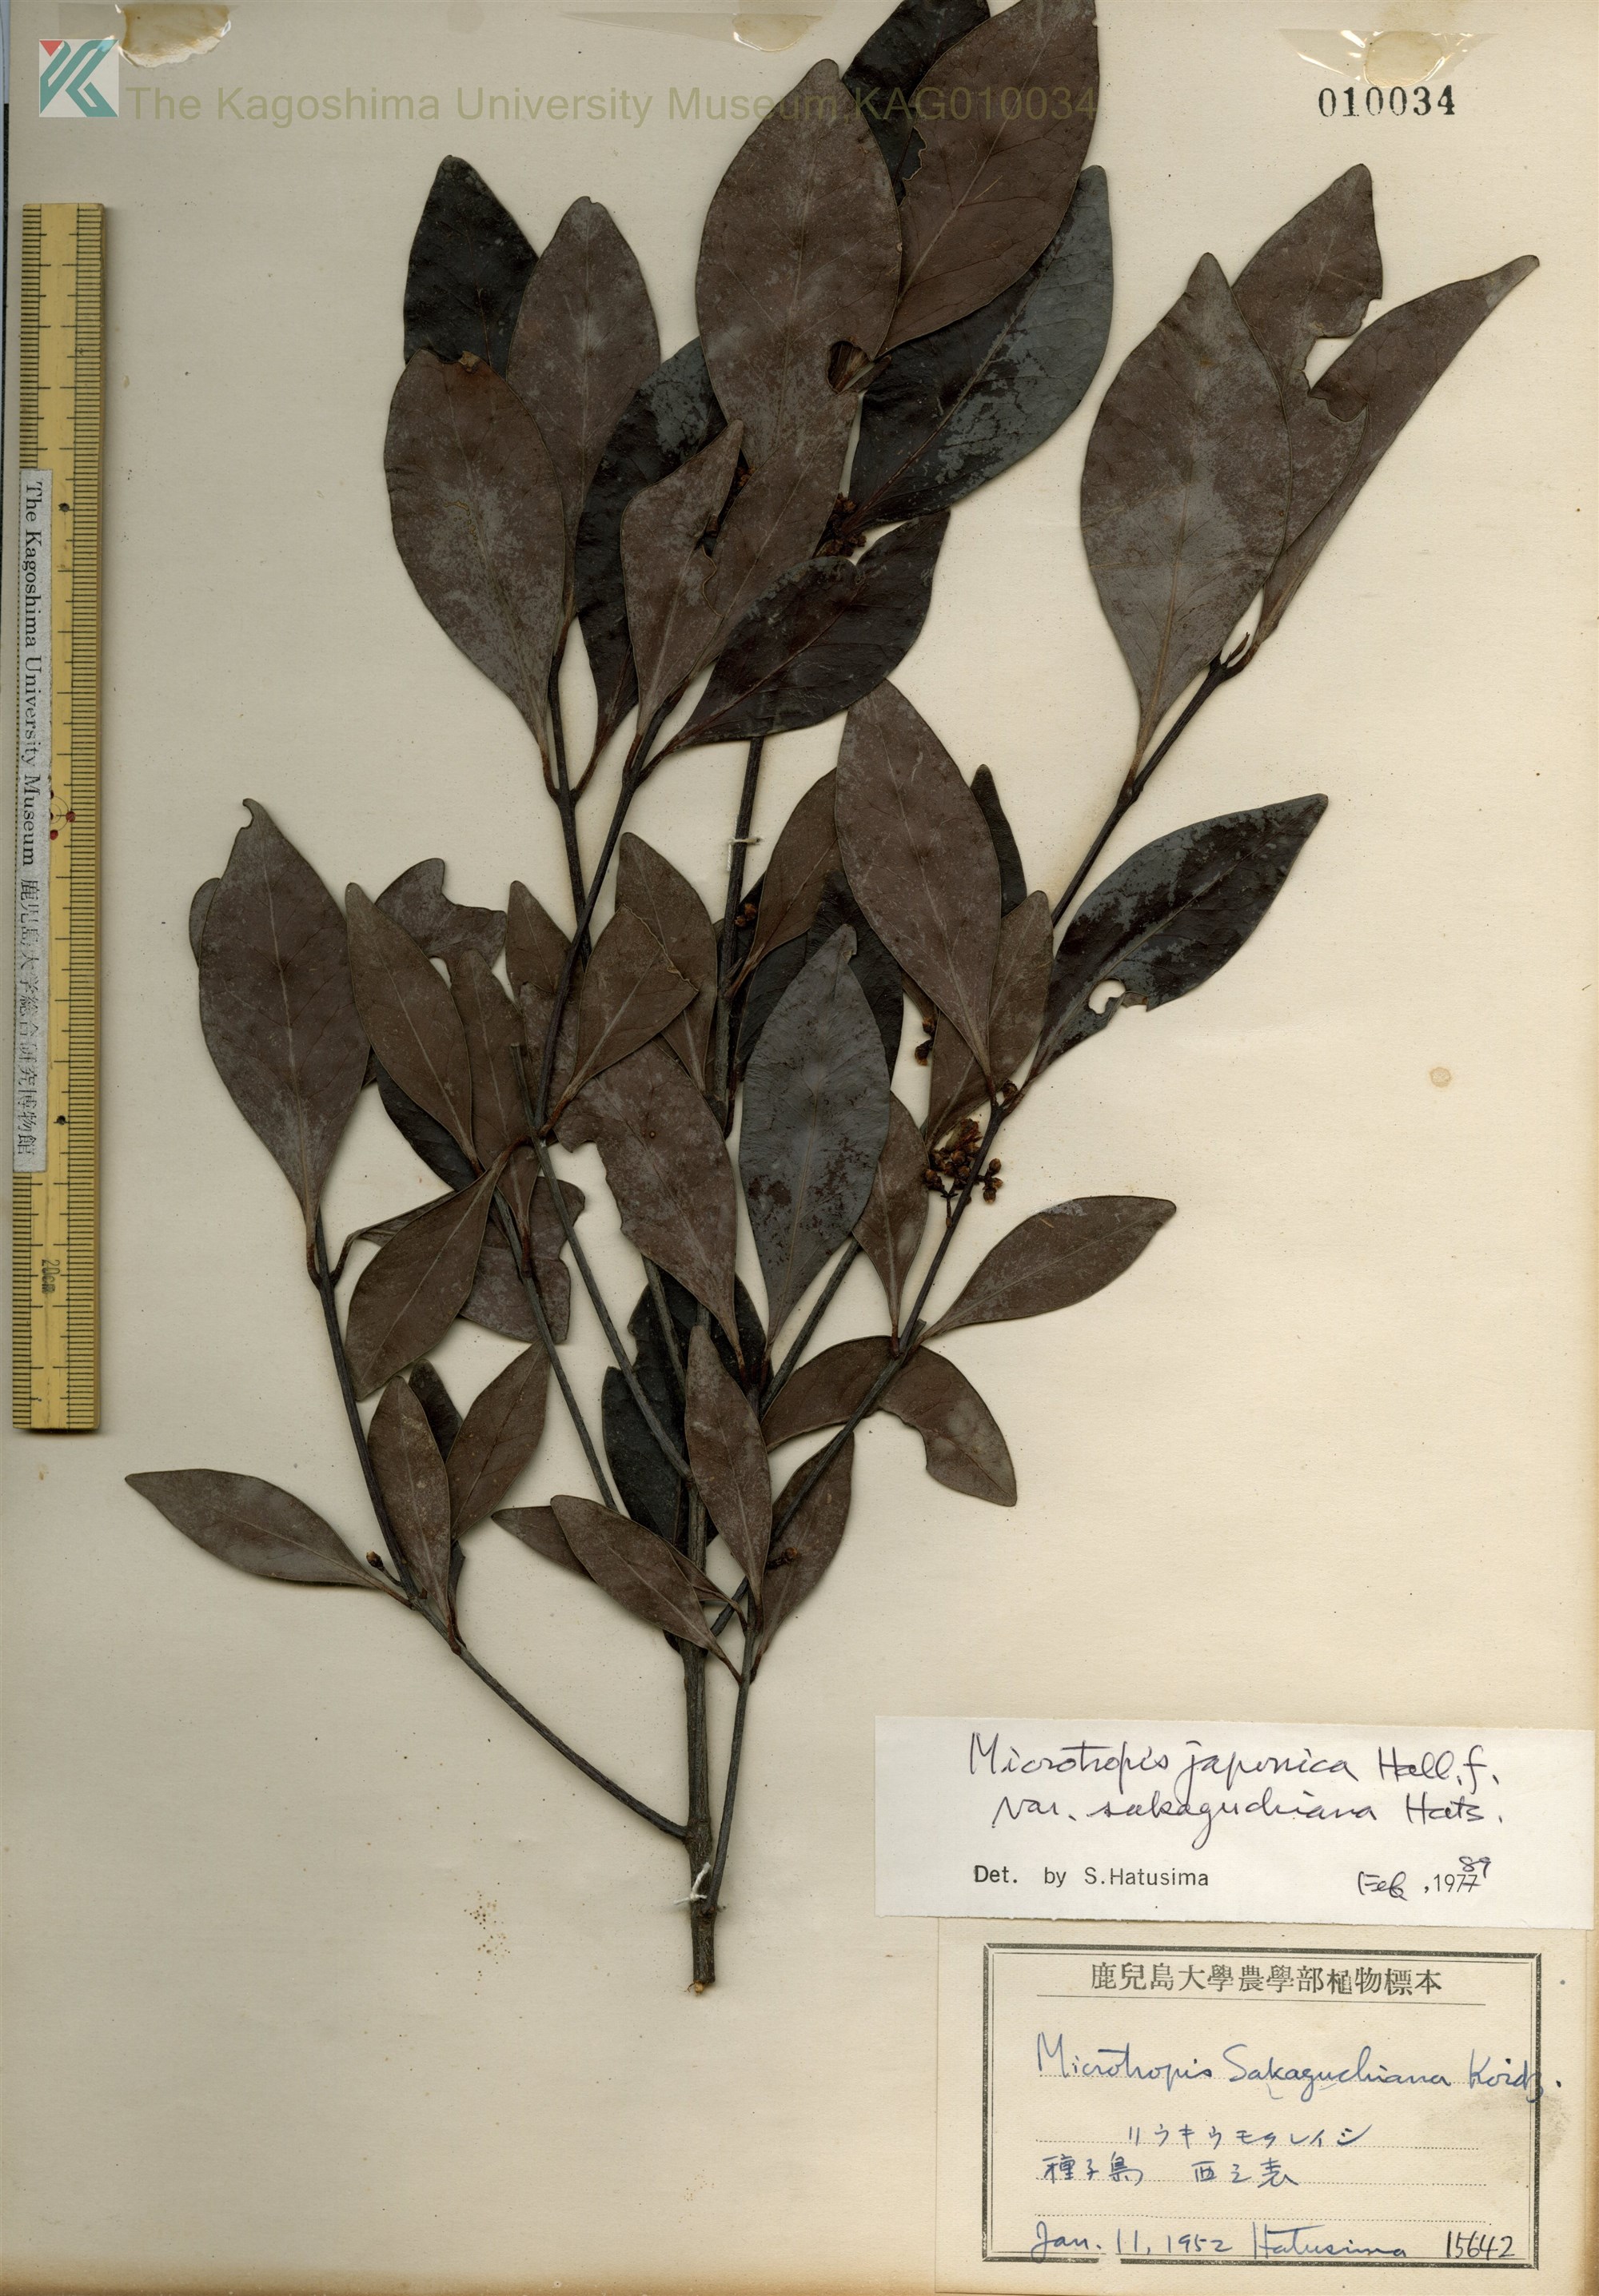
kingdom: Plantae
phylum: Tracheophyta
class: Magnoliopsida
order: Celastrales
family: Celastraceae
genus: Microtropis
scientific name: Microtropis japonica
